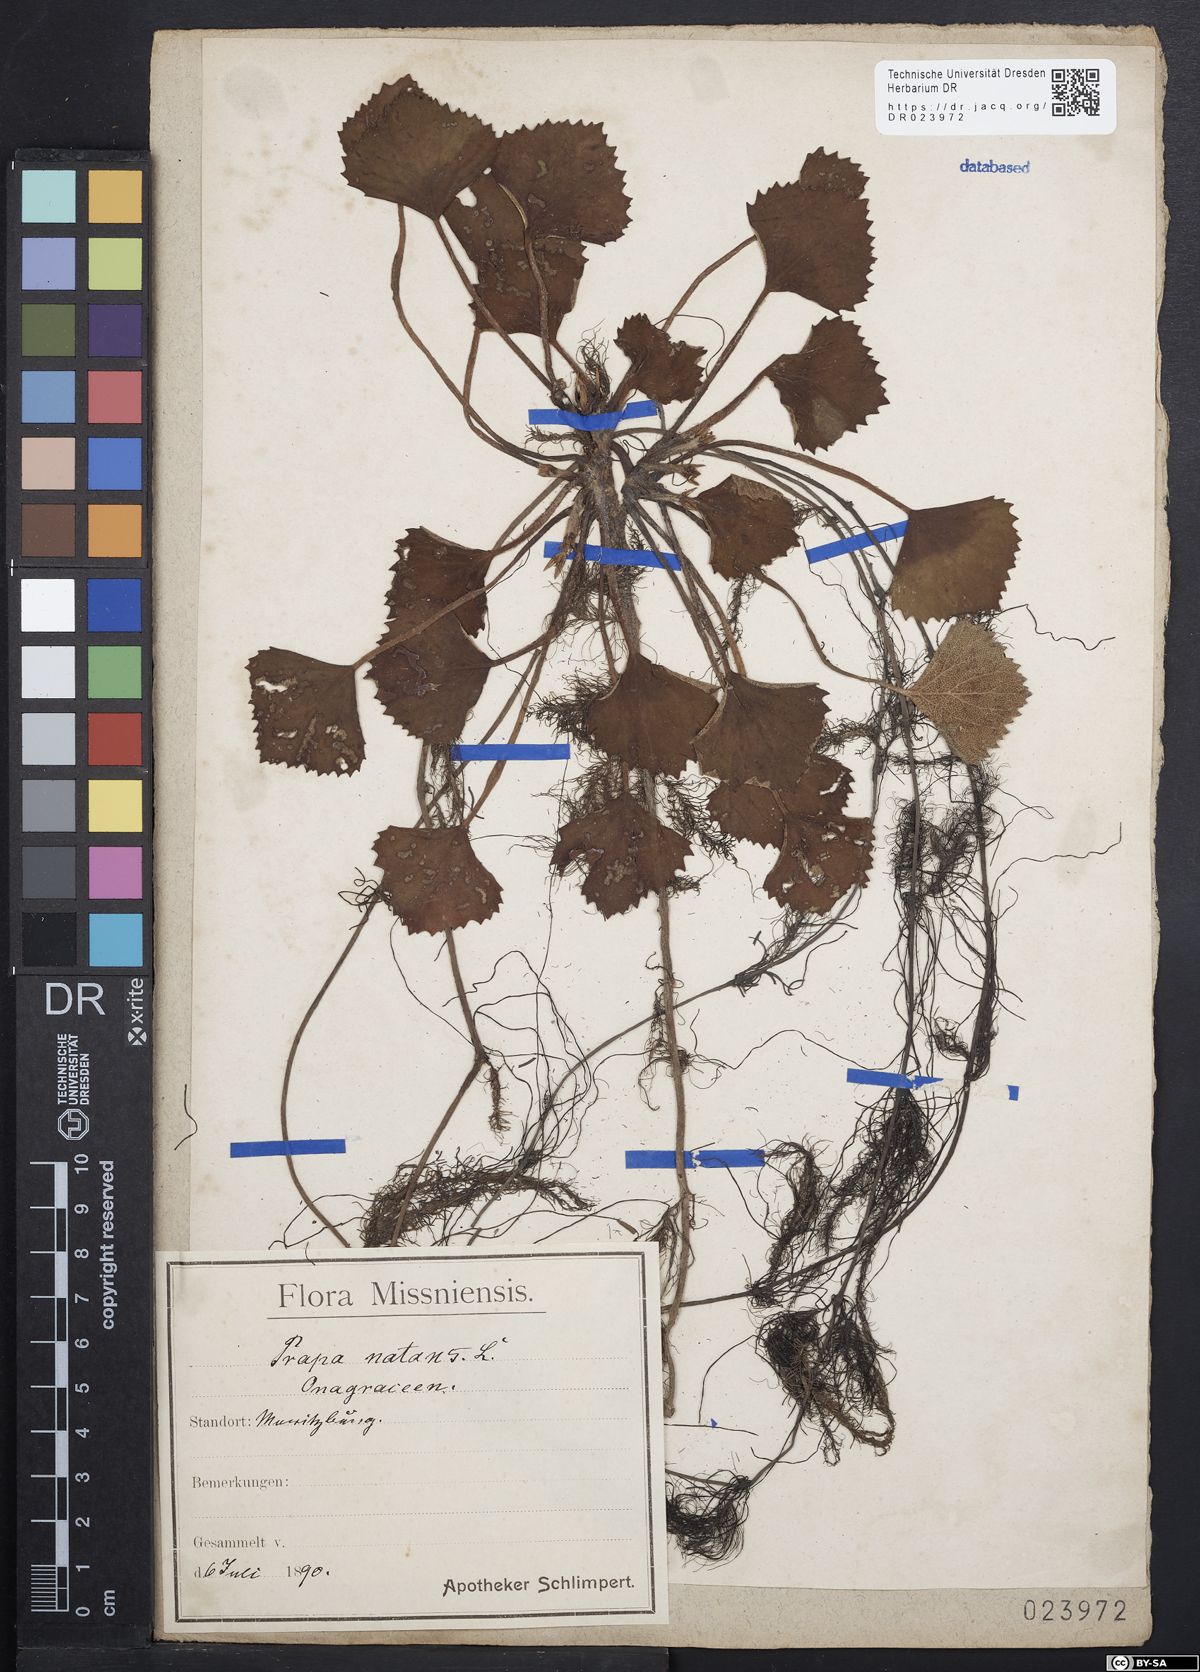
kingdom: Plantae
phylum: Tracheophyta
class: Magnoliopsida
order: Myrtales
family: Lythraceae
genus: Trapa
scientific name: Trapa natans
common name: Water chestnut
